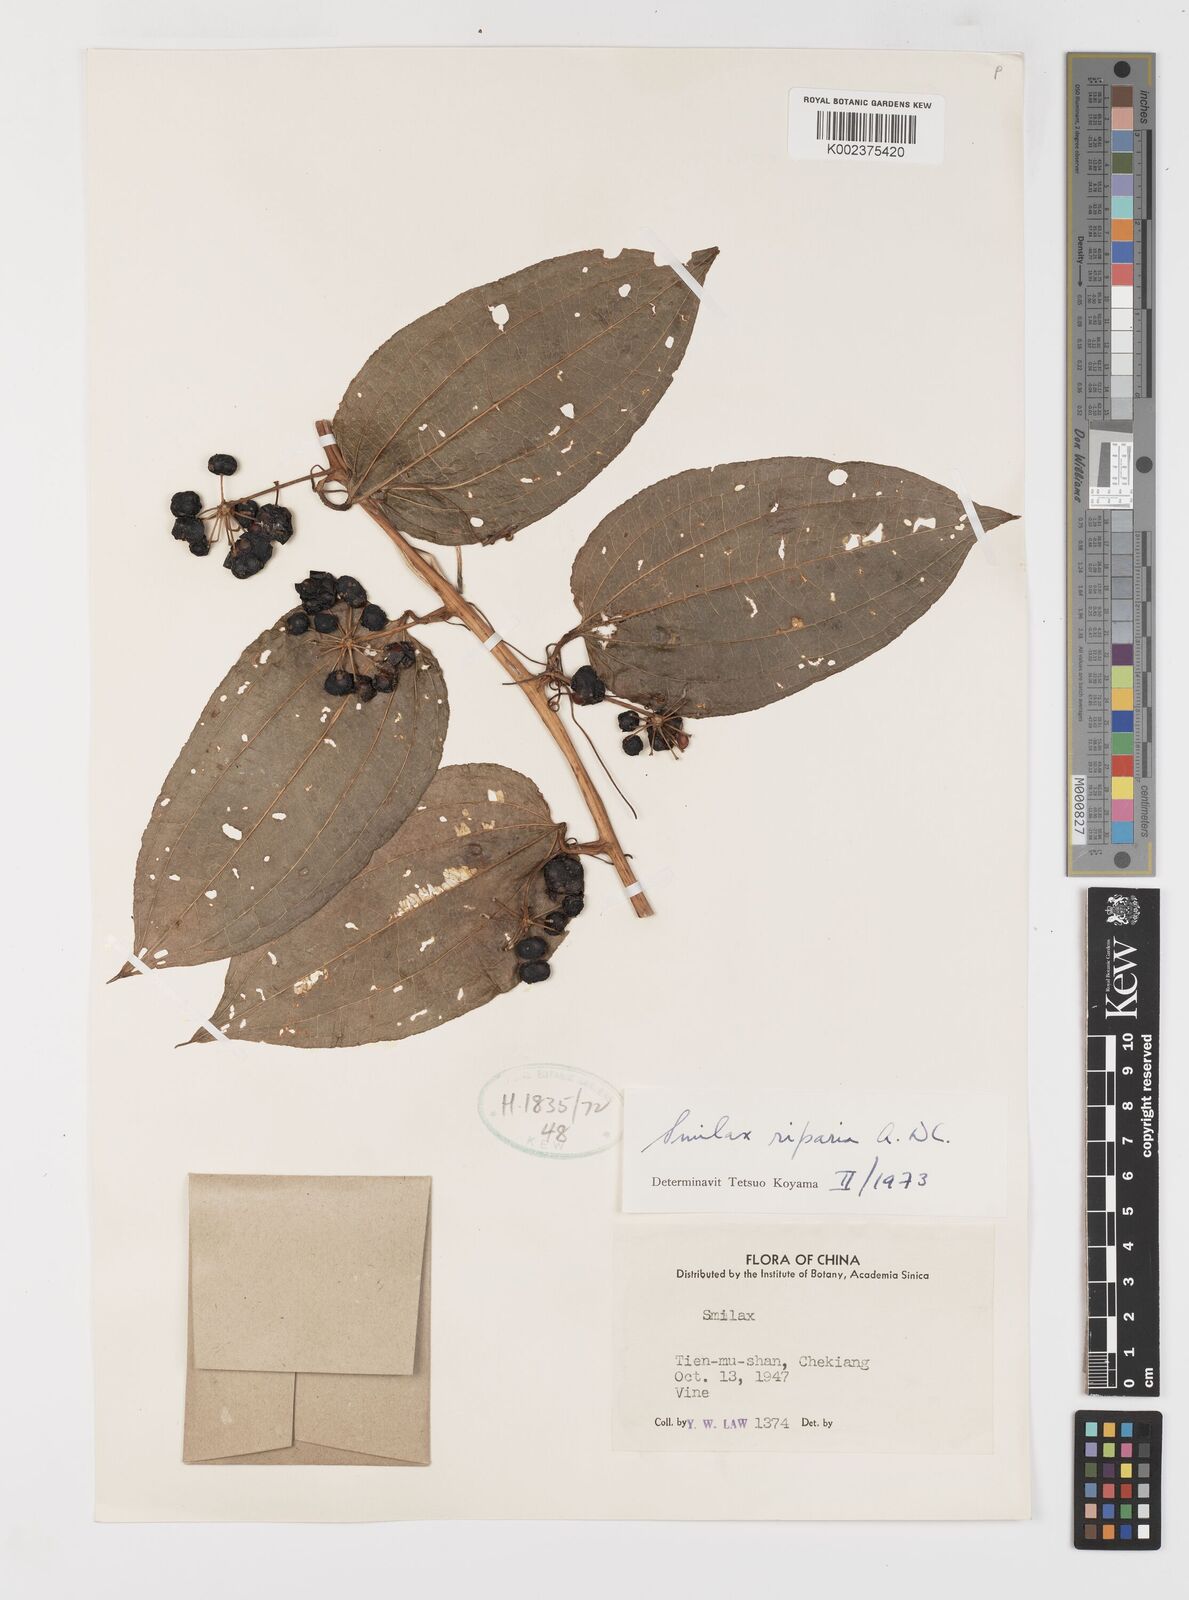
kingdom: Plantae
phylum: Tracheophyta
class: Liliopsida
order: Liliales
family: Smilacaceae
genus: Smilax
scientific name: Smilax riparia
